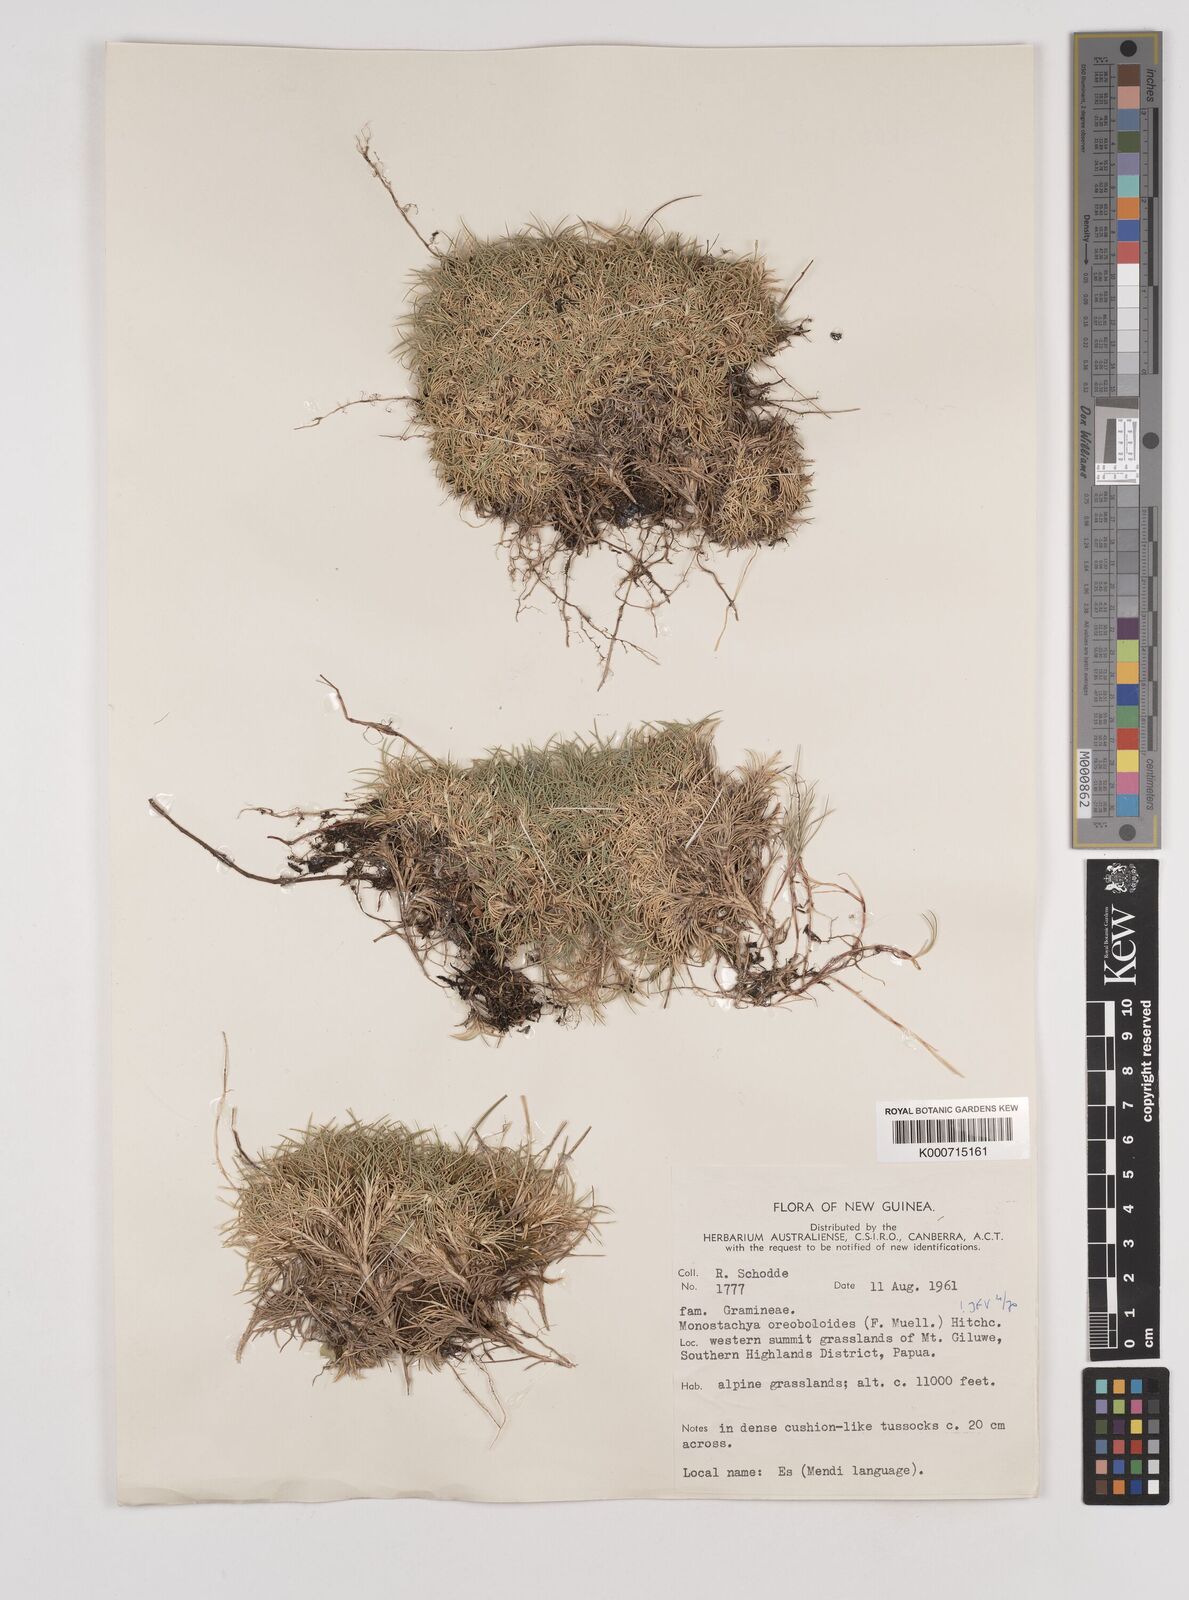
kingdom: Plantae
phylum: Tracheophyta
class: Liliopsida
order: Poales
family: Poaceae
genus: Rytidosperma
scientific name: Rytidosperma oreoboloides
